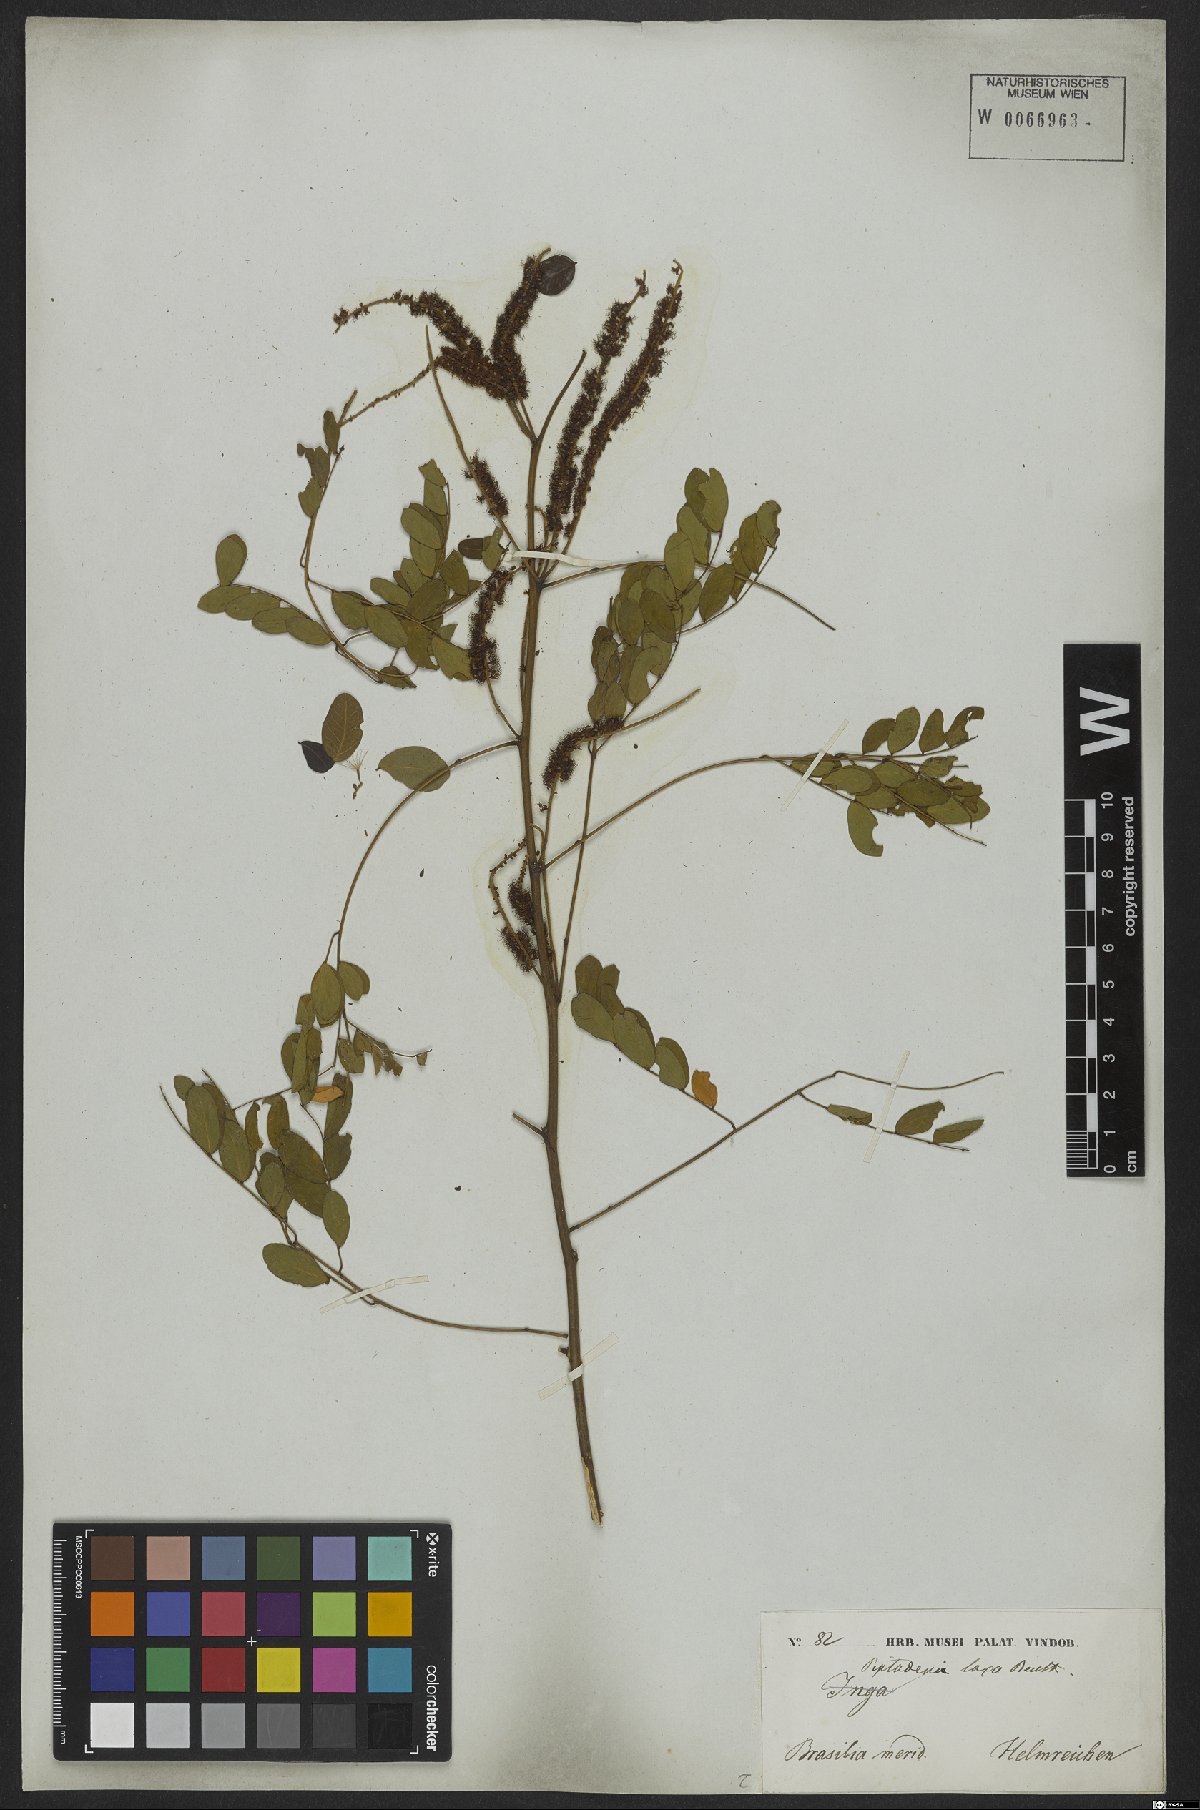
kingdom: Plantae
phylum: Tracheophyta
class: Magnoliopsida
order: Fabales
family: Fabaceae
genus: Piptadenia
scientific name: Piptadenia adiantoides
